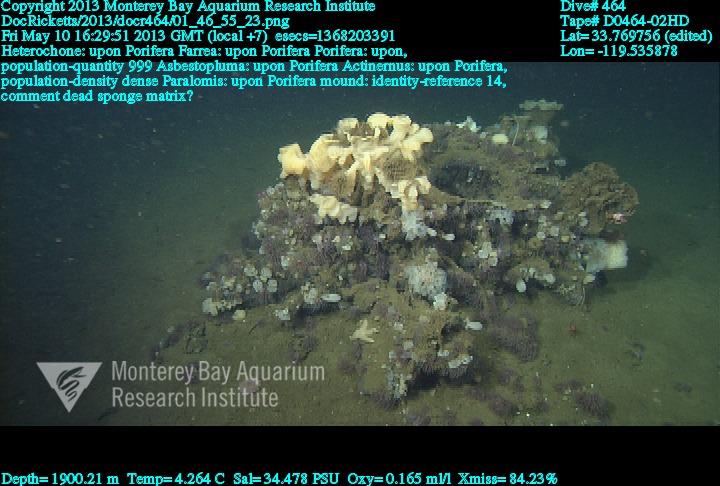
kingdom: Animalia
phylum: Porifera
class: Hexactinellida
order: Sceptrulophora
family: Farreidae
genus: Farrea
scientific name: Farrea
